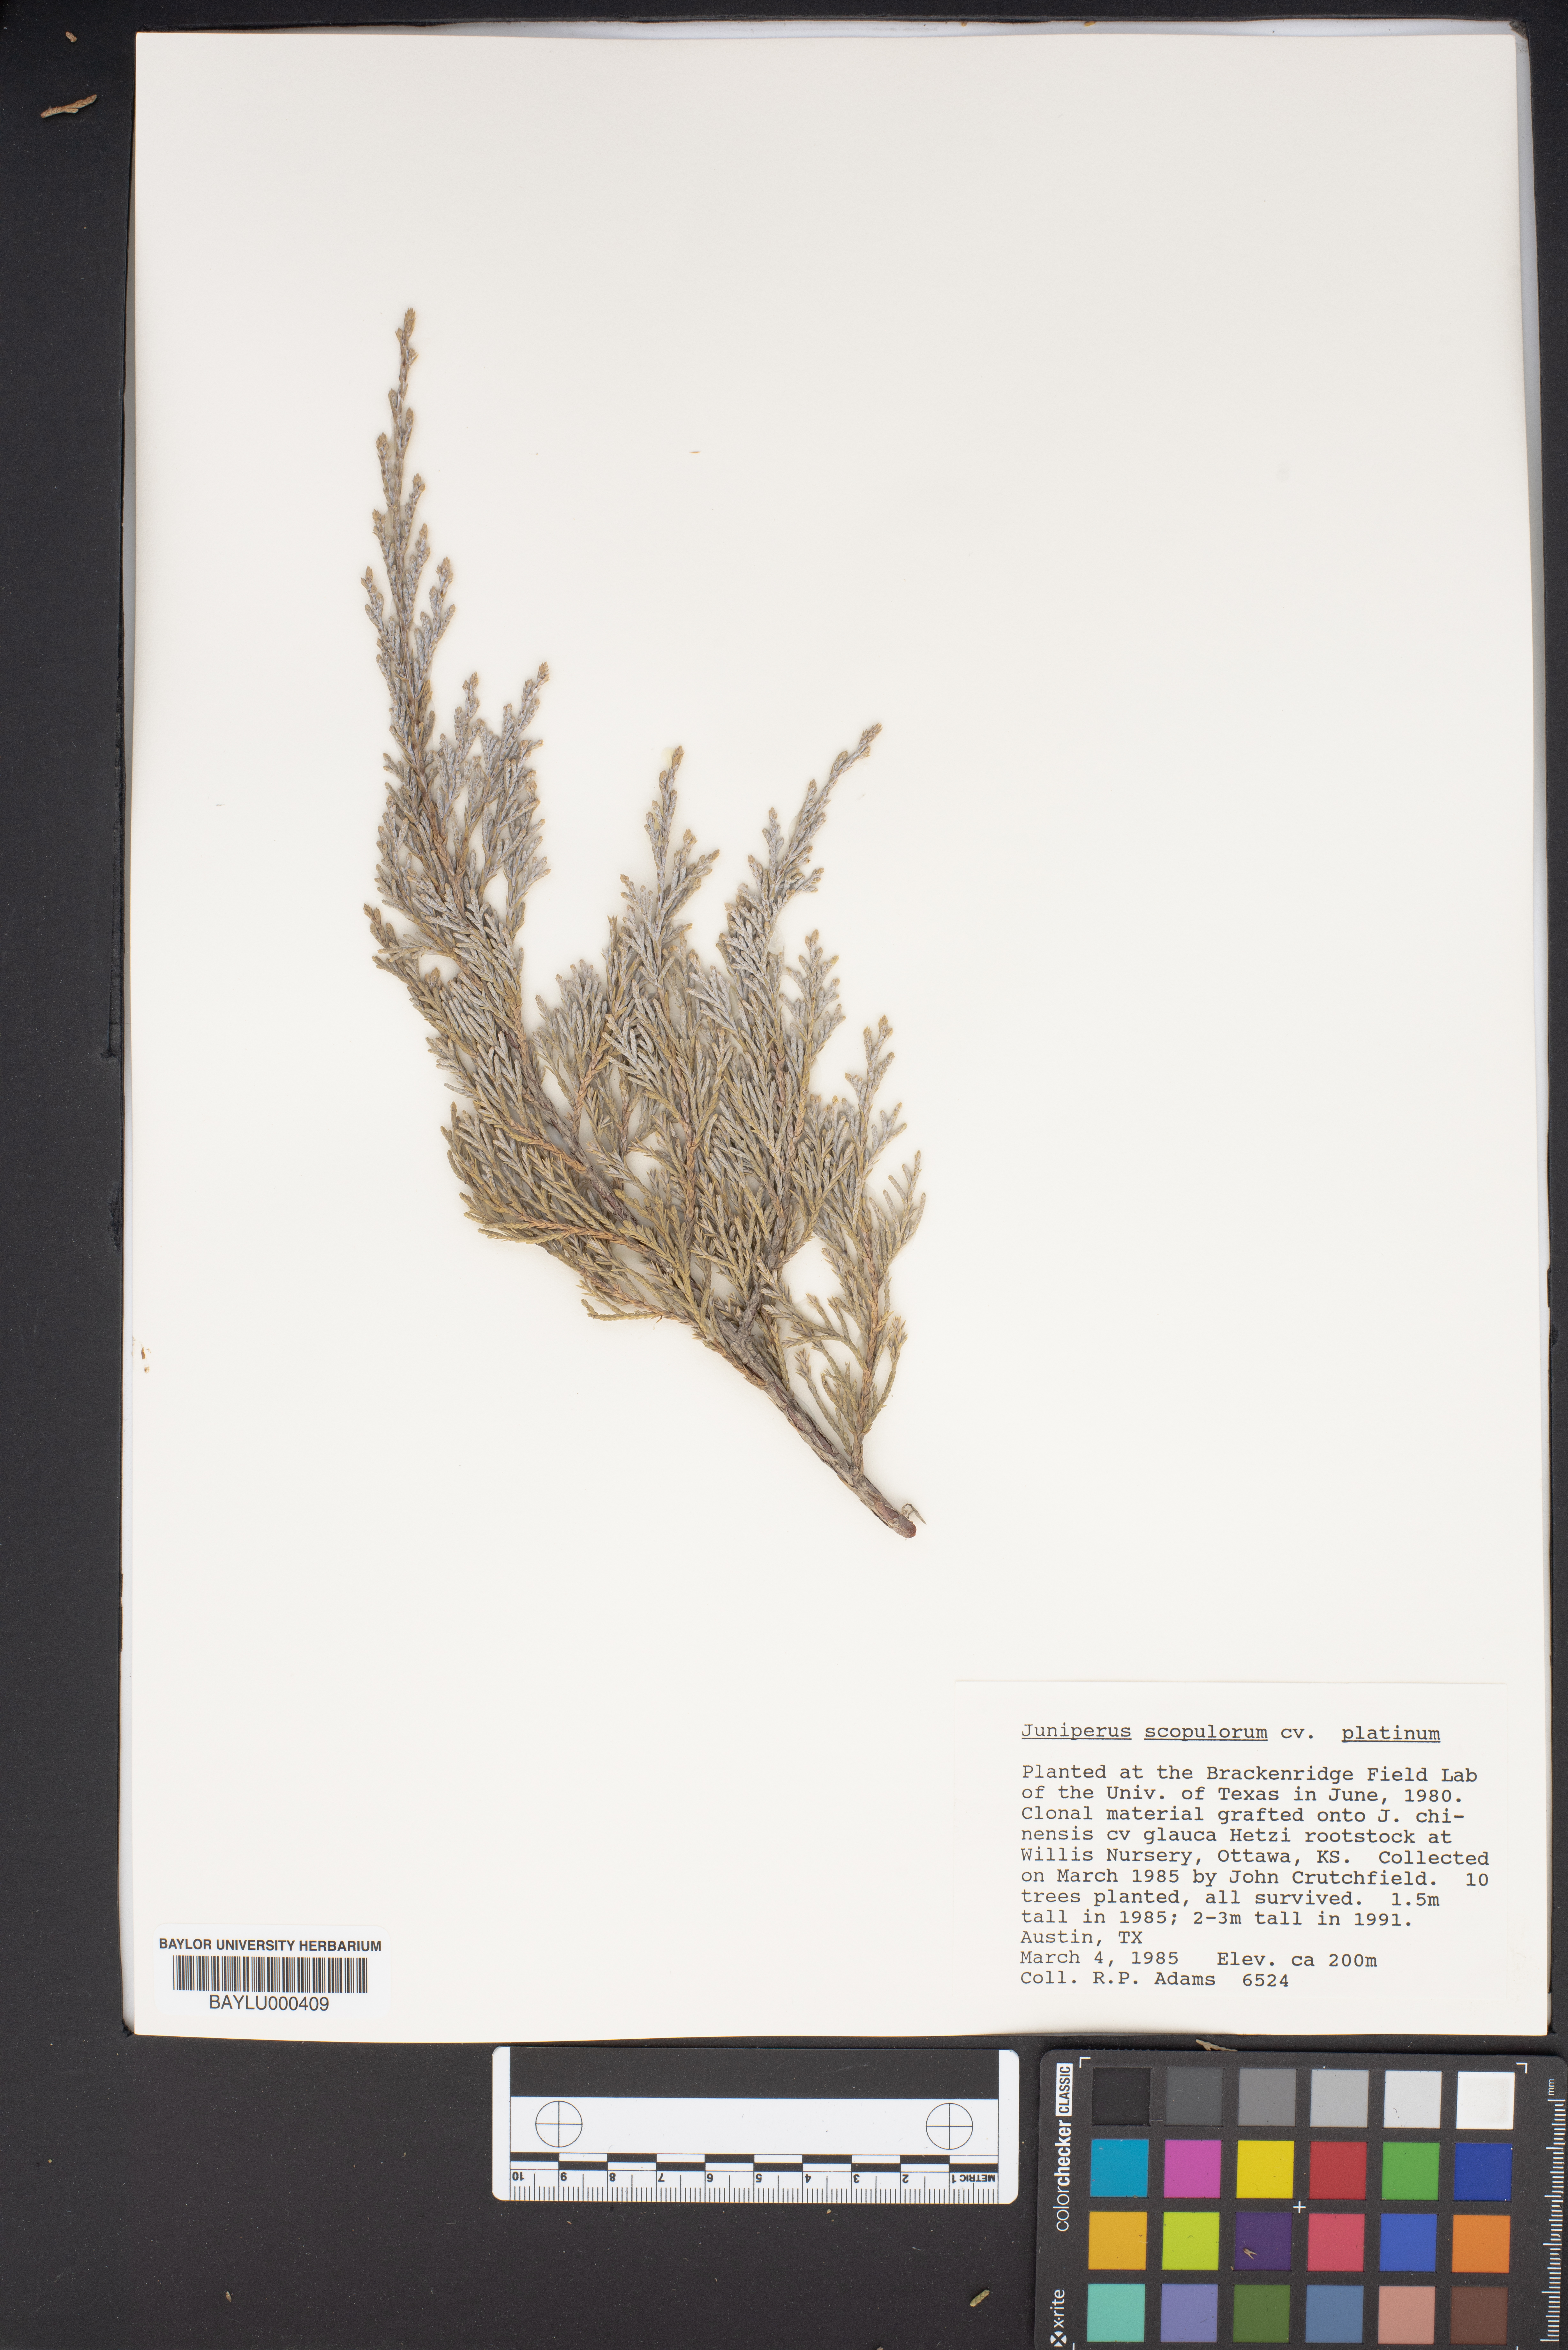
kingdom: Plantae
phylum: Tracheophyta
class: Pinopsida
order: Pinales
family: Cupressaceae
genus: Juniperus
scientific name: Juniperus scopulorum
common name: Rocky mountain juniper
